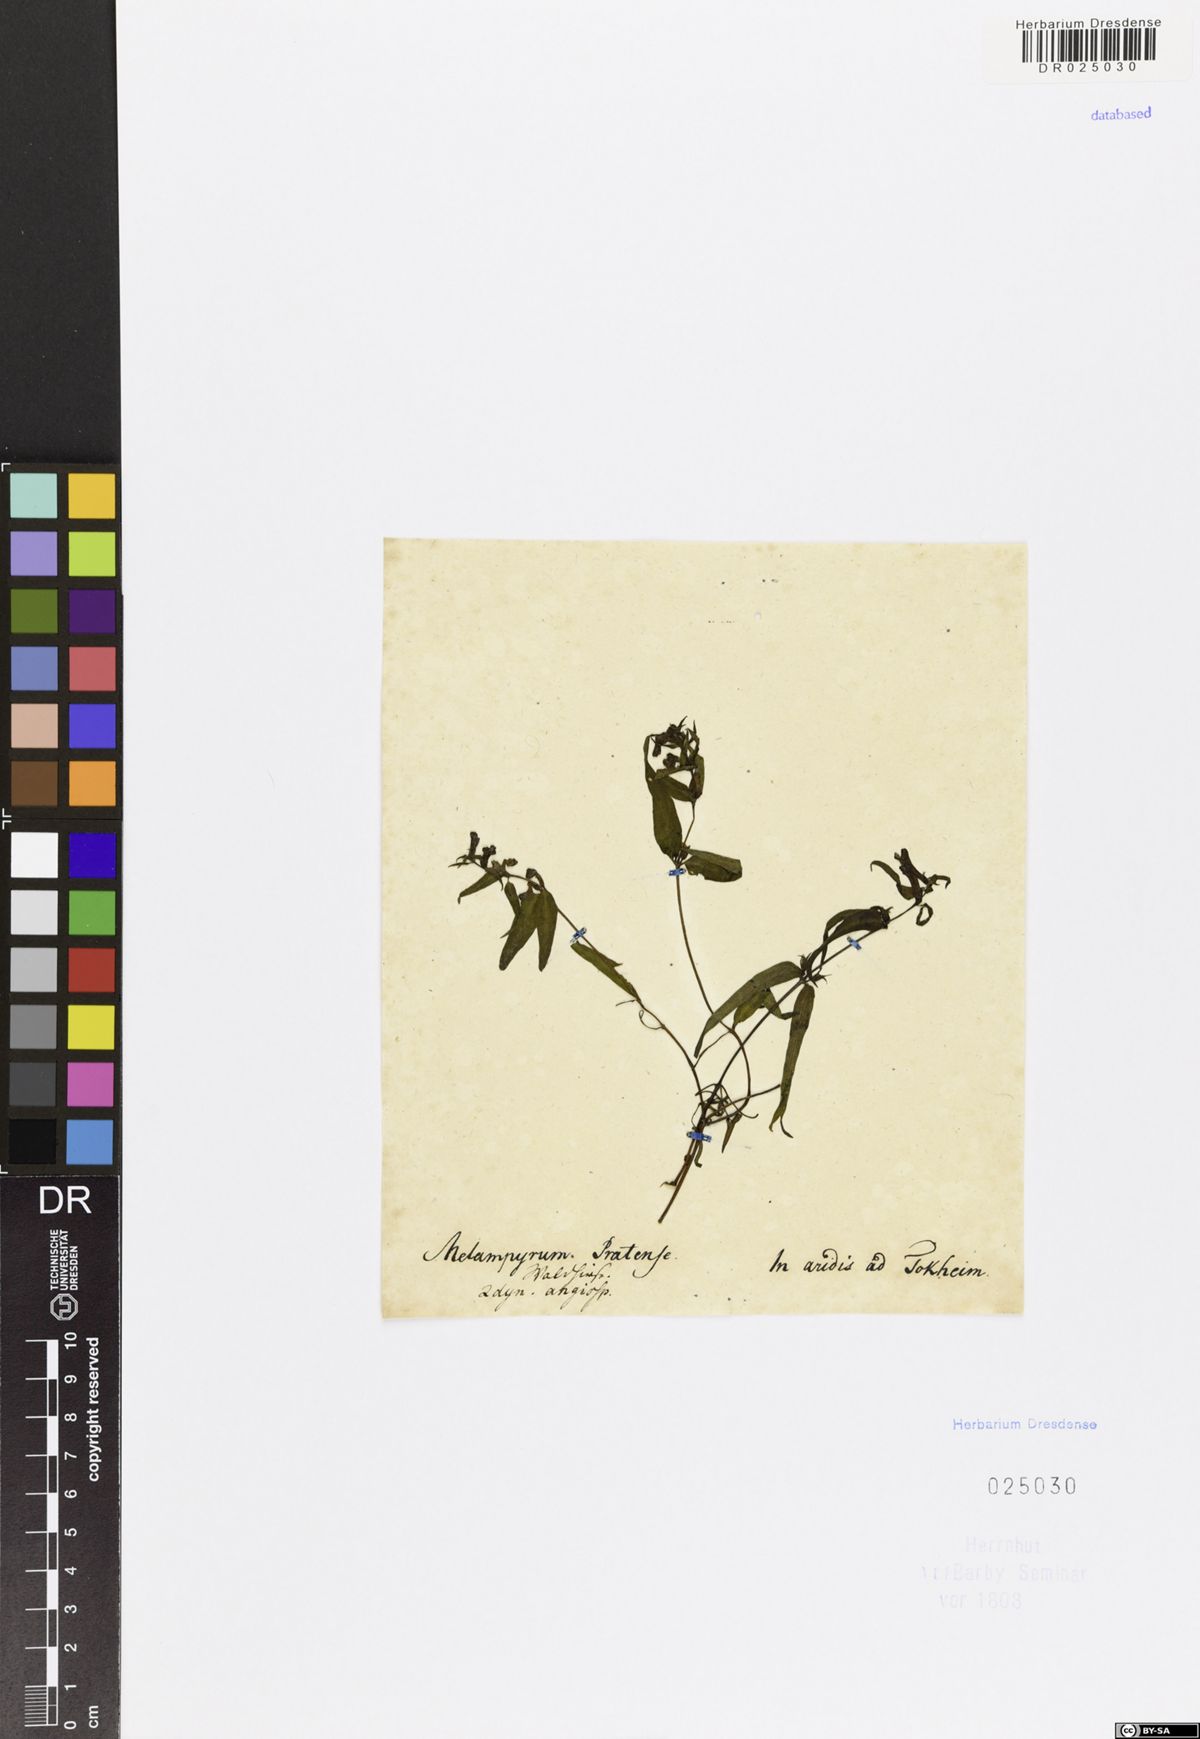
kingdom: Plantae
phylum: Tracheophyta
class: Magnoliopsida
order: Lamiales
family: Orobanchaceae
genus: Melampyrum
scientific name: Melampyrum pratense
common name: Common cow-wheat
